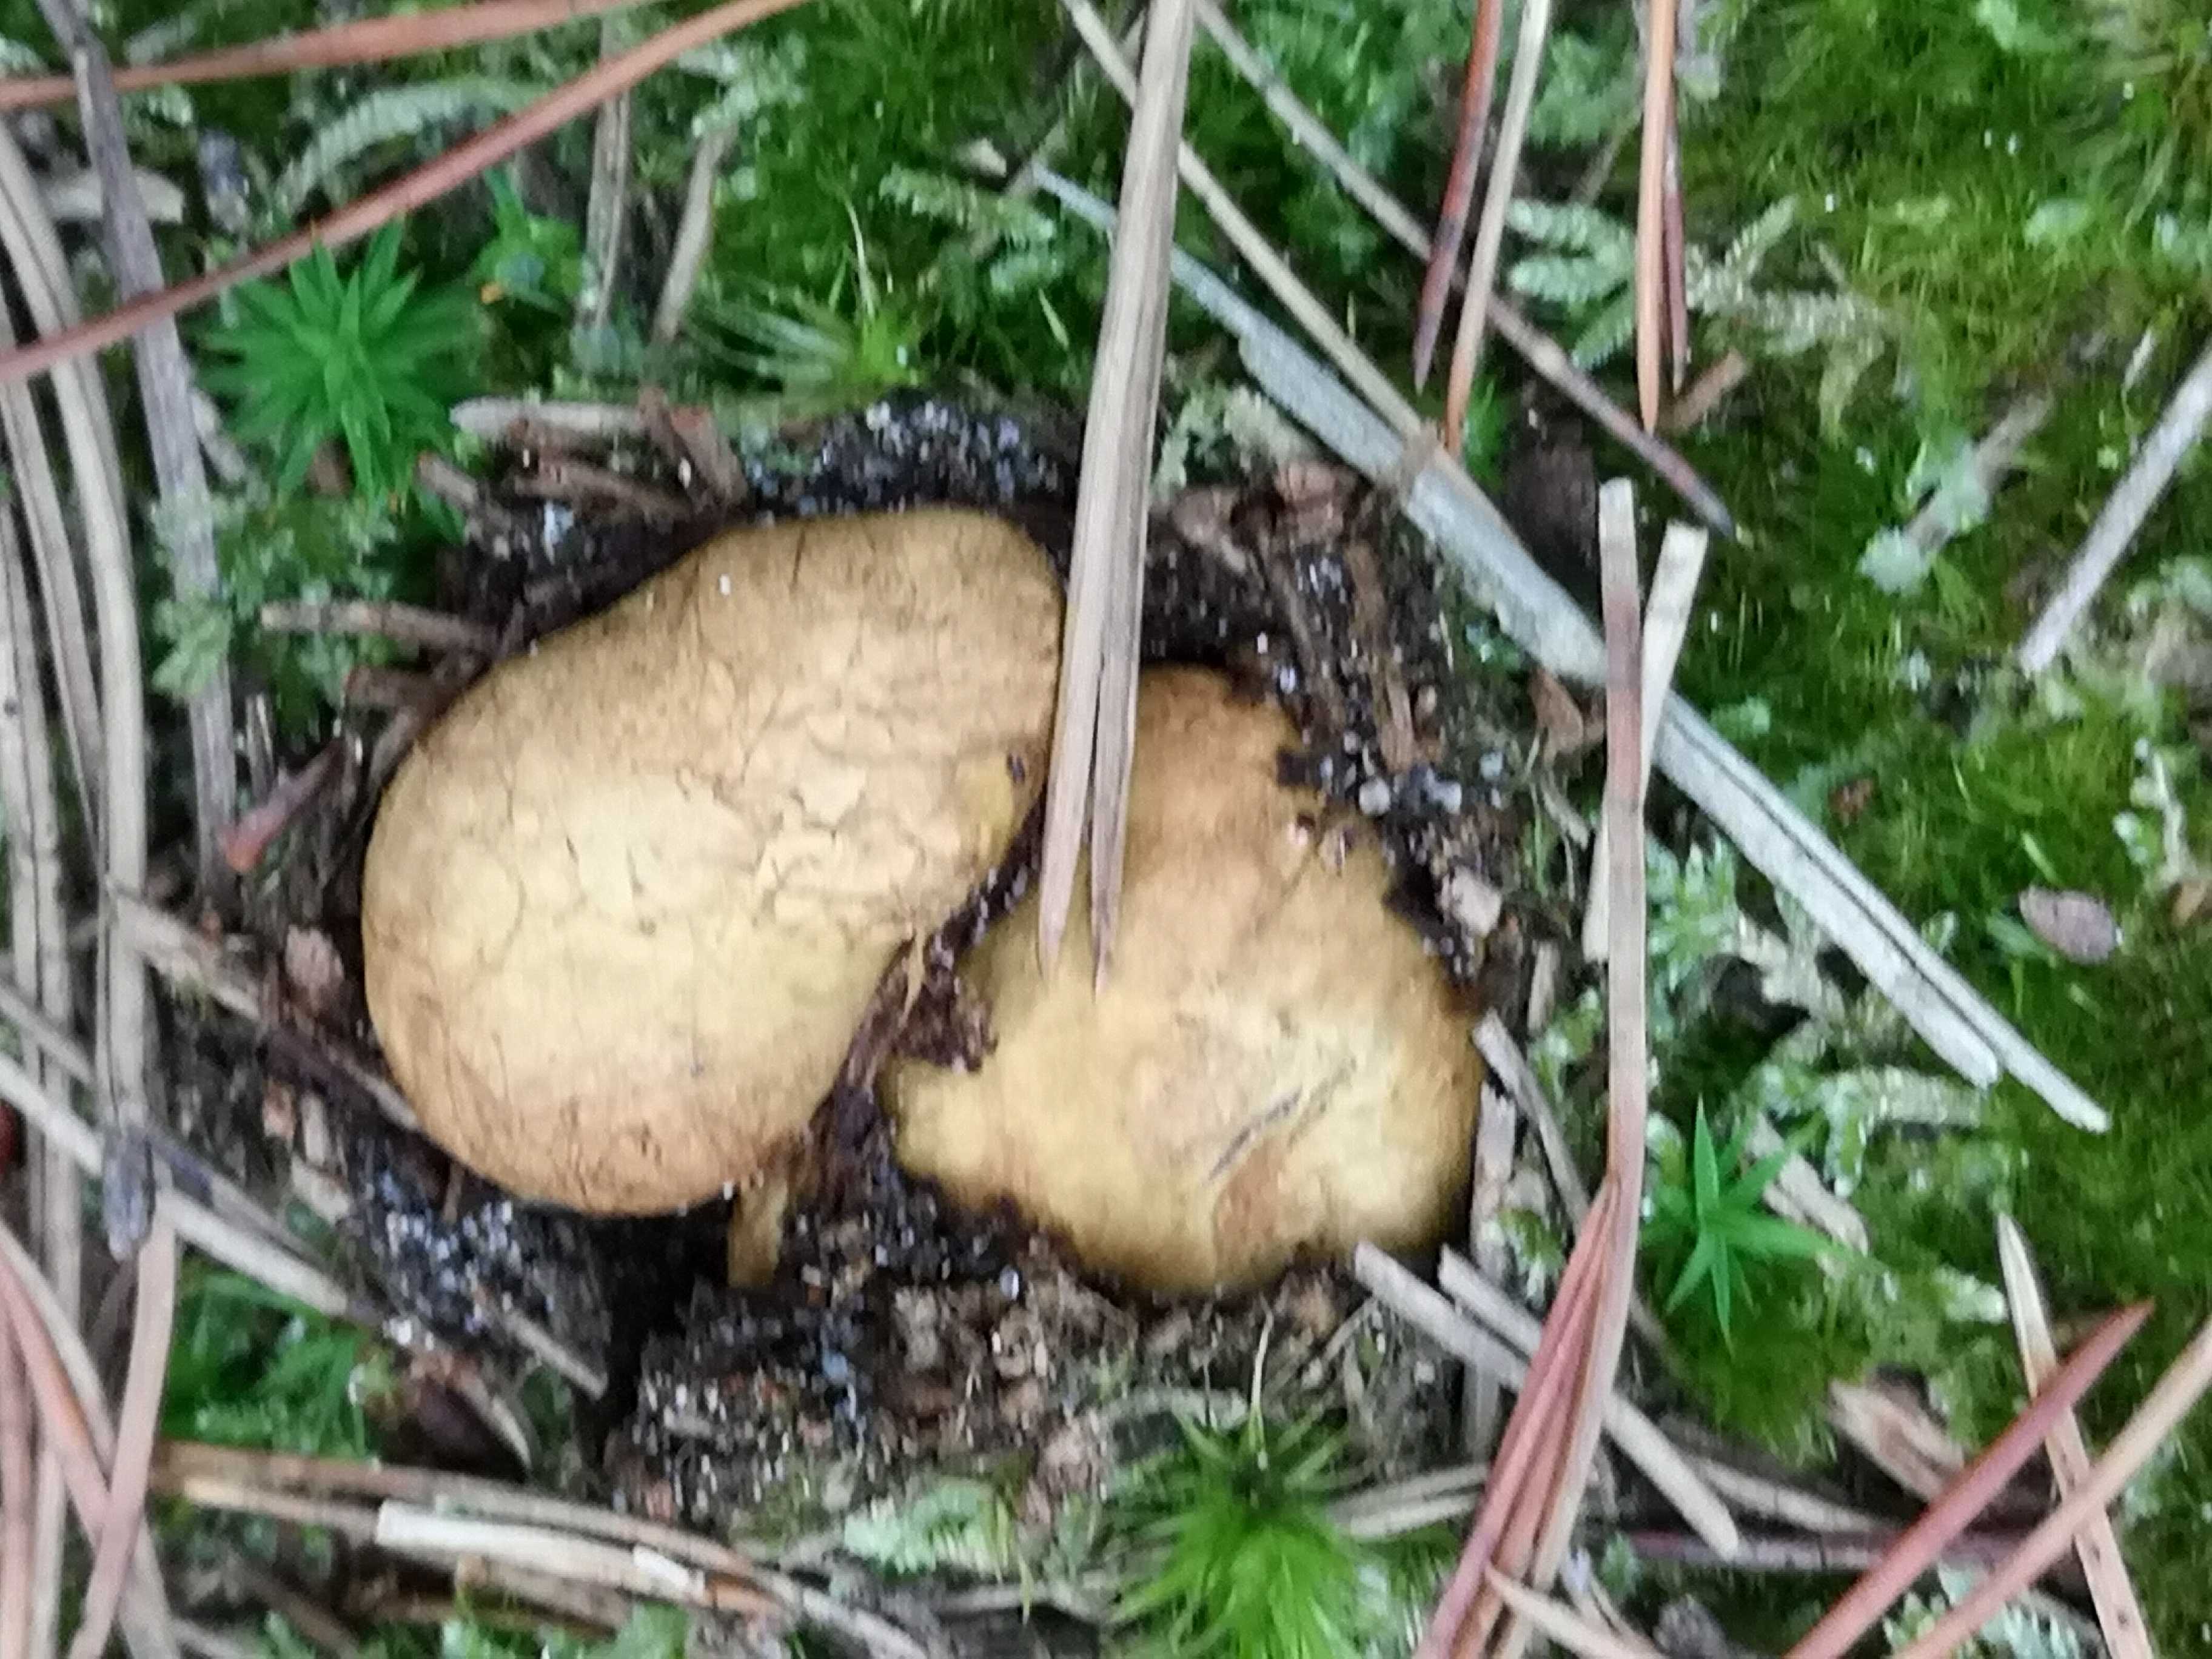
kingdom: Fungi
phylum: Basidiomycota
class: Agaricomycetes
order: Boletales
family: Rhizopogonaceae
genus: Rhizopogon
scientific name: Rhizopogon obtextus
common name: gul skægtrøffel
